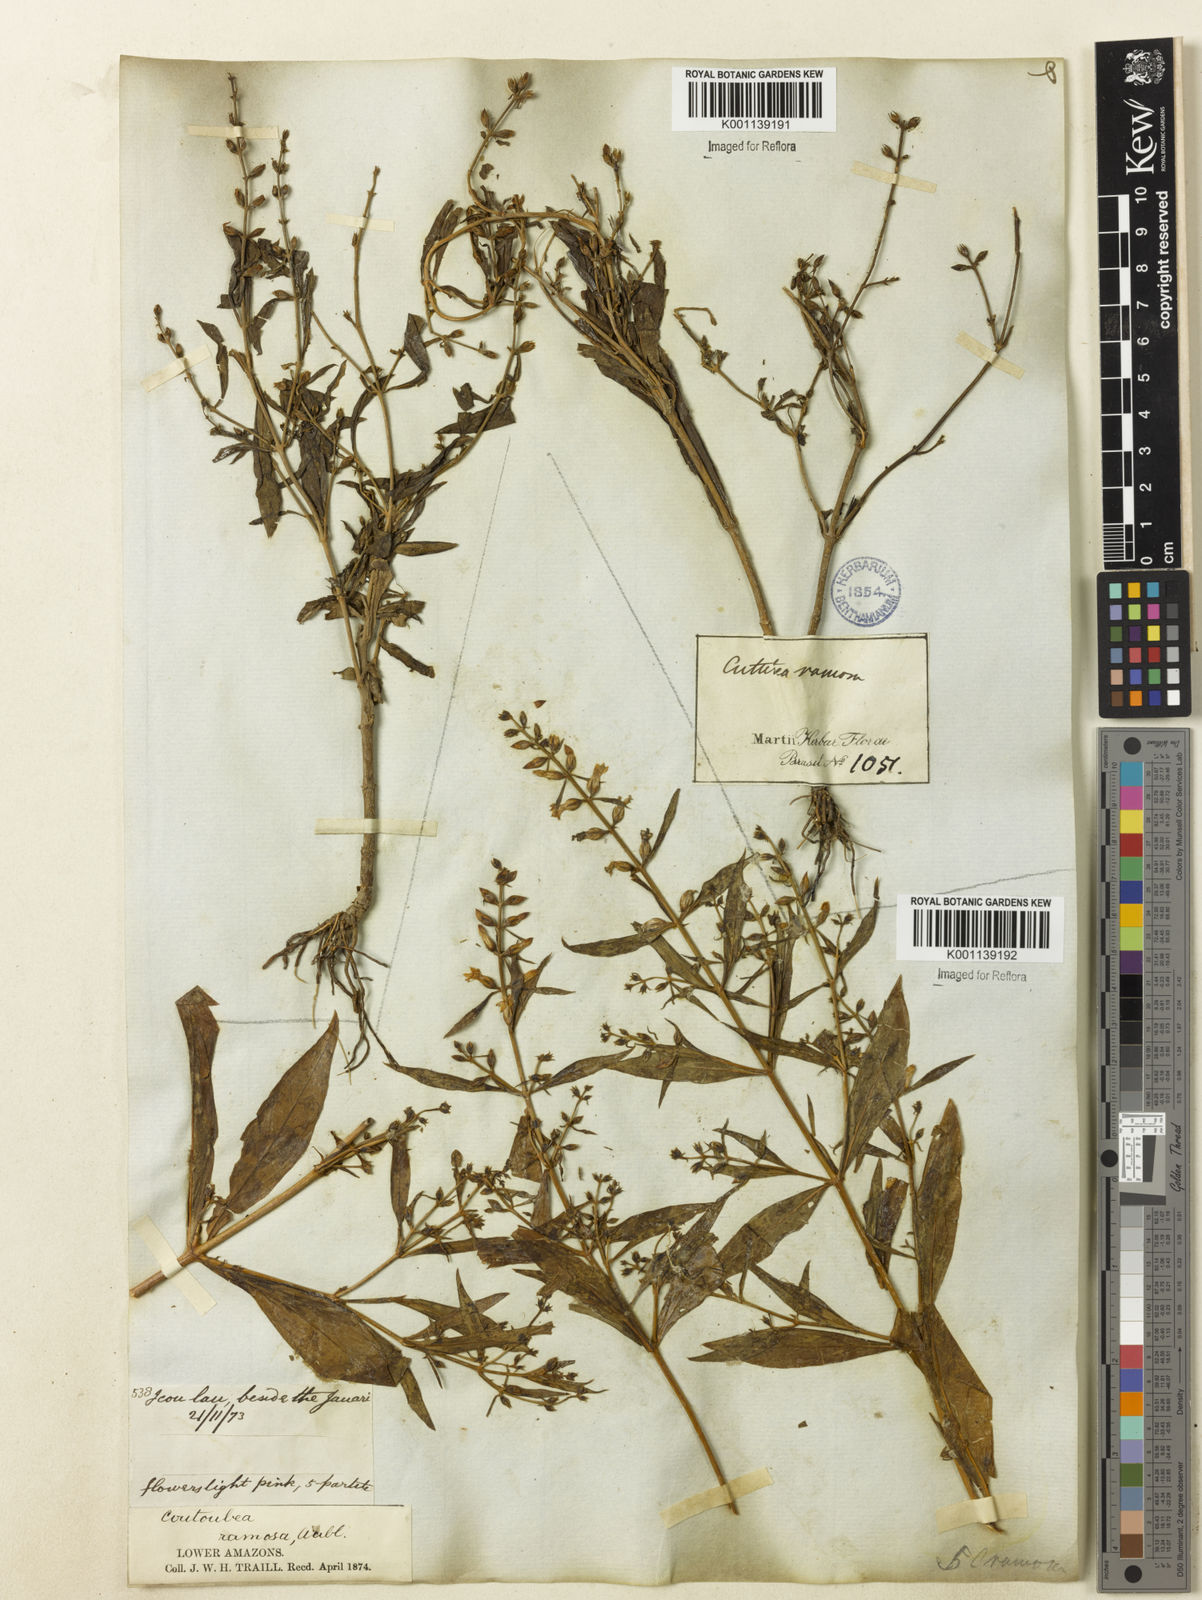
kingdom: Plantae
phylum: Tracheophyta
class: Magnoliopsida
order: Gentianales
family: Gentianaceae
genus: Coutoubea
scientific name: Coutoubea ramosa
